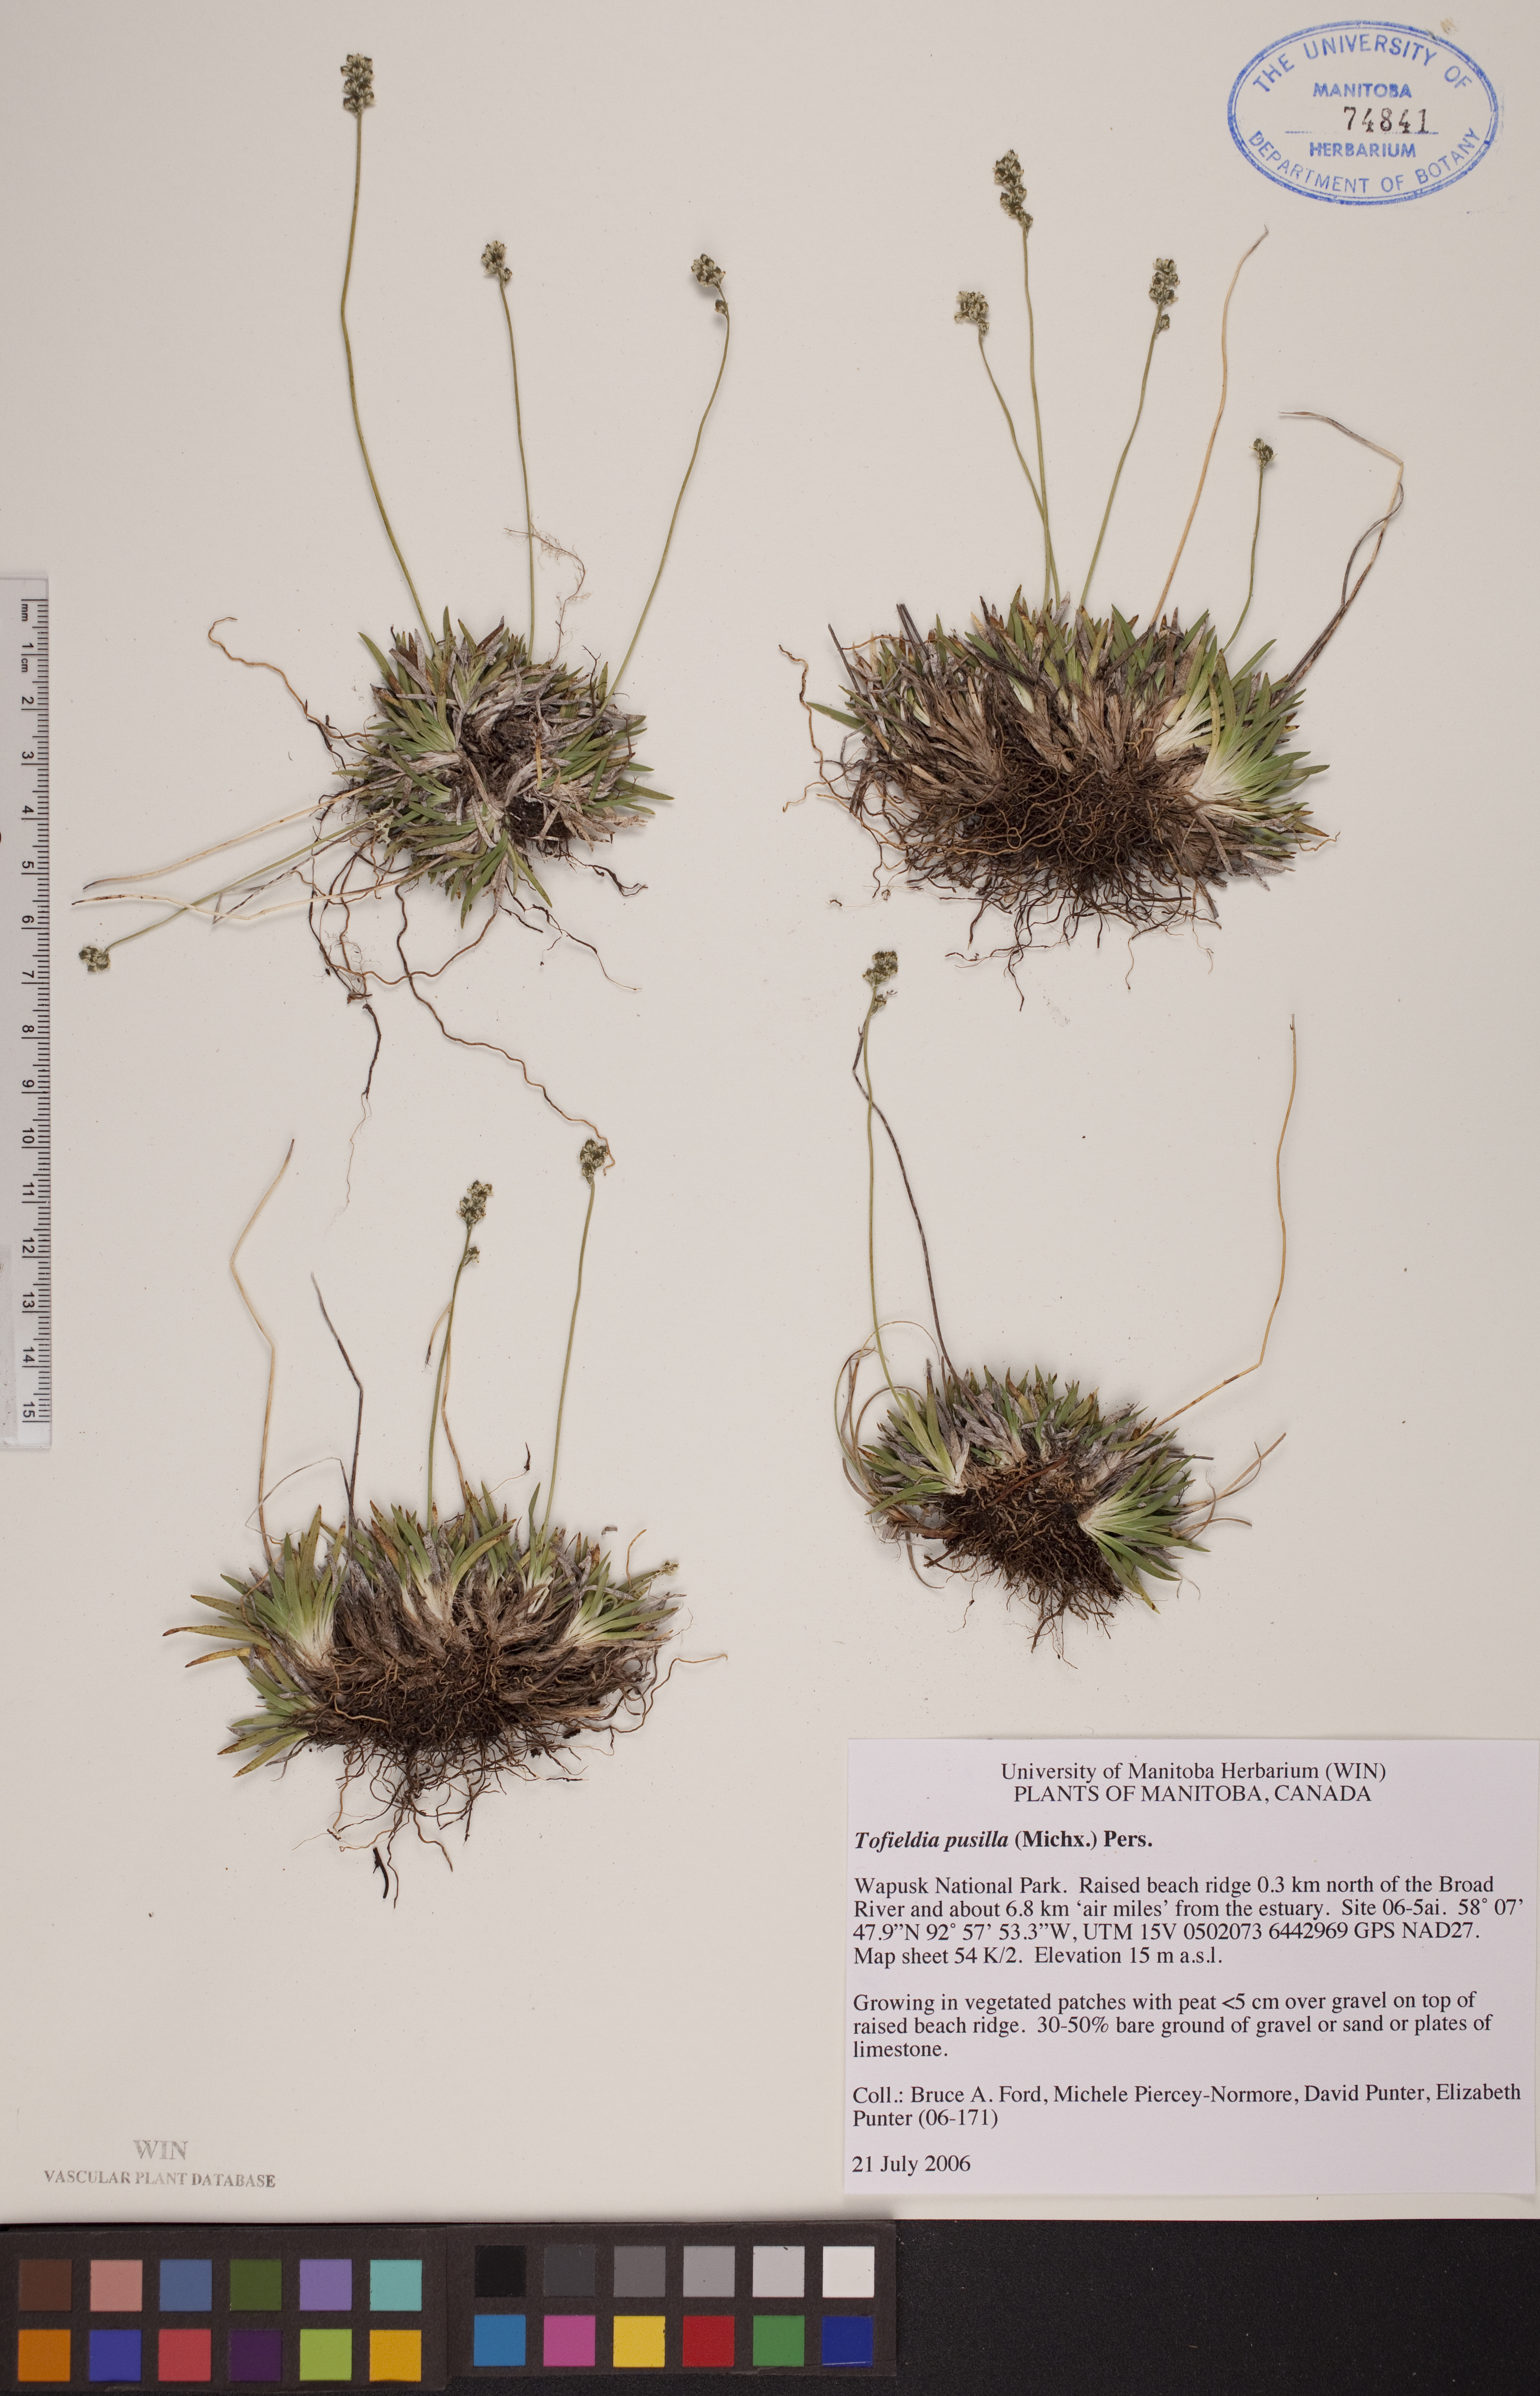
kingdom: Plantae
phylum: Tracheophyta
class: Liliopsida
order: Alismatales
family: Tofieldiaceae
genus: Tofieldia
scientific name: Tofieldia pusilla
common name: Scottish false asphodel
